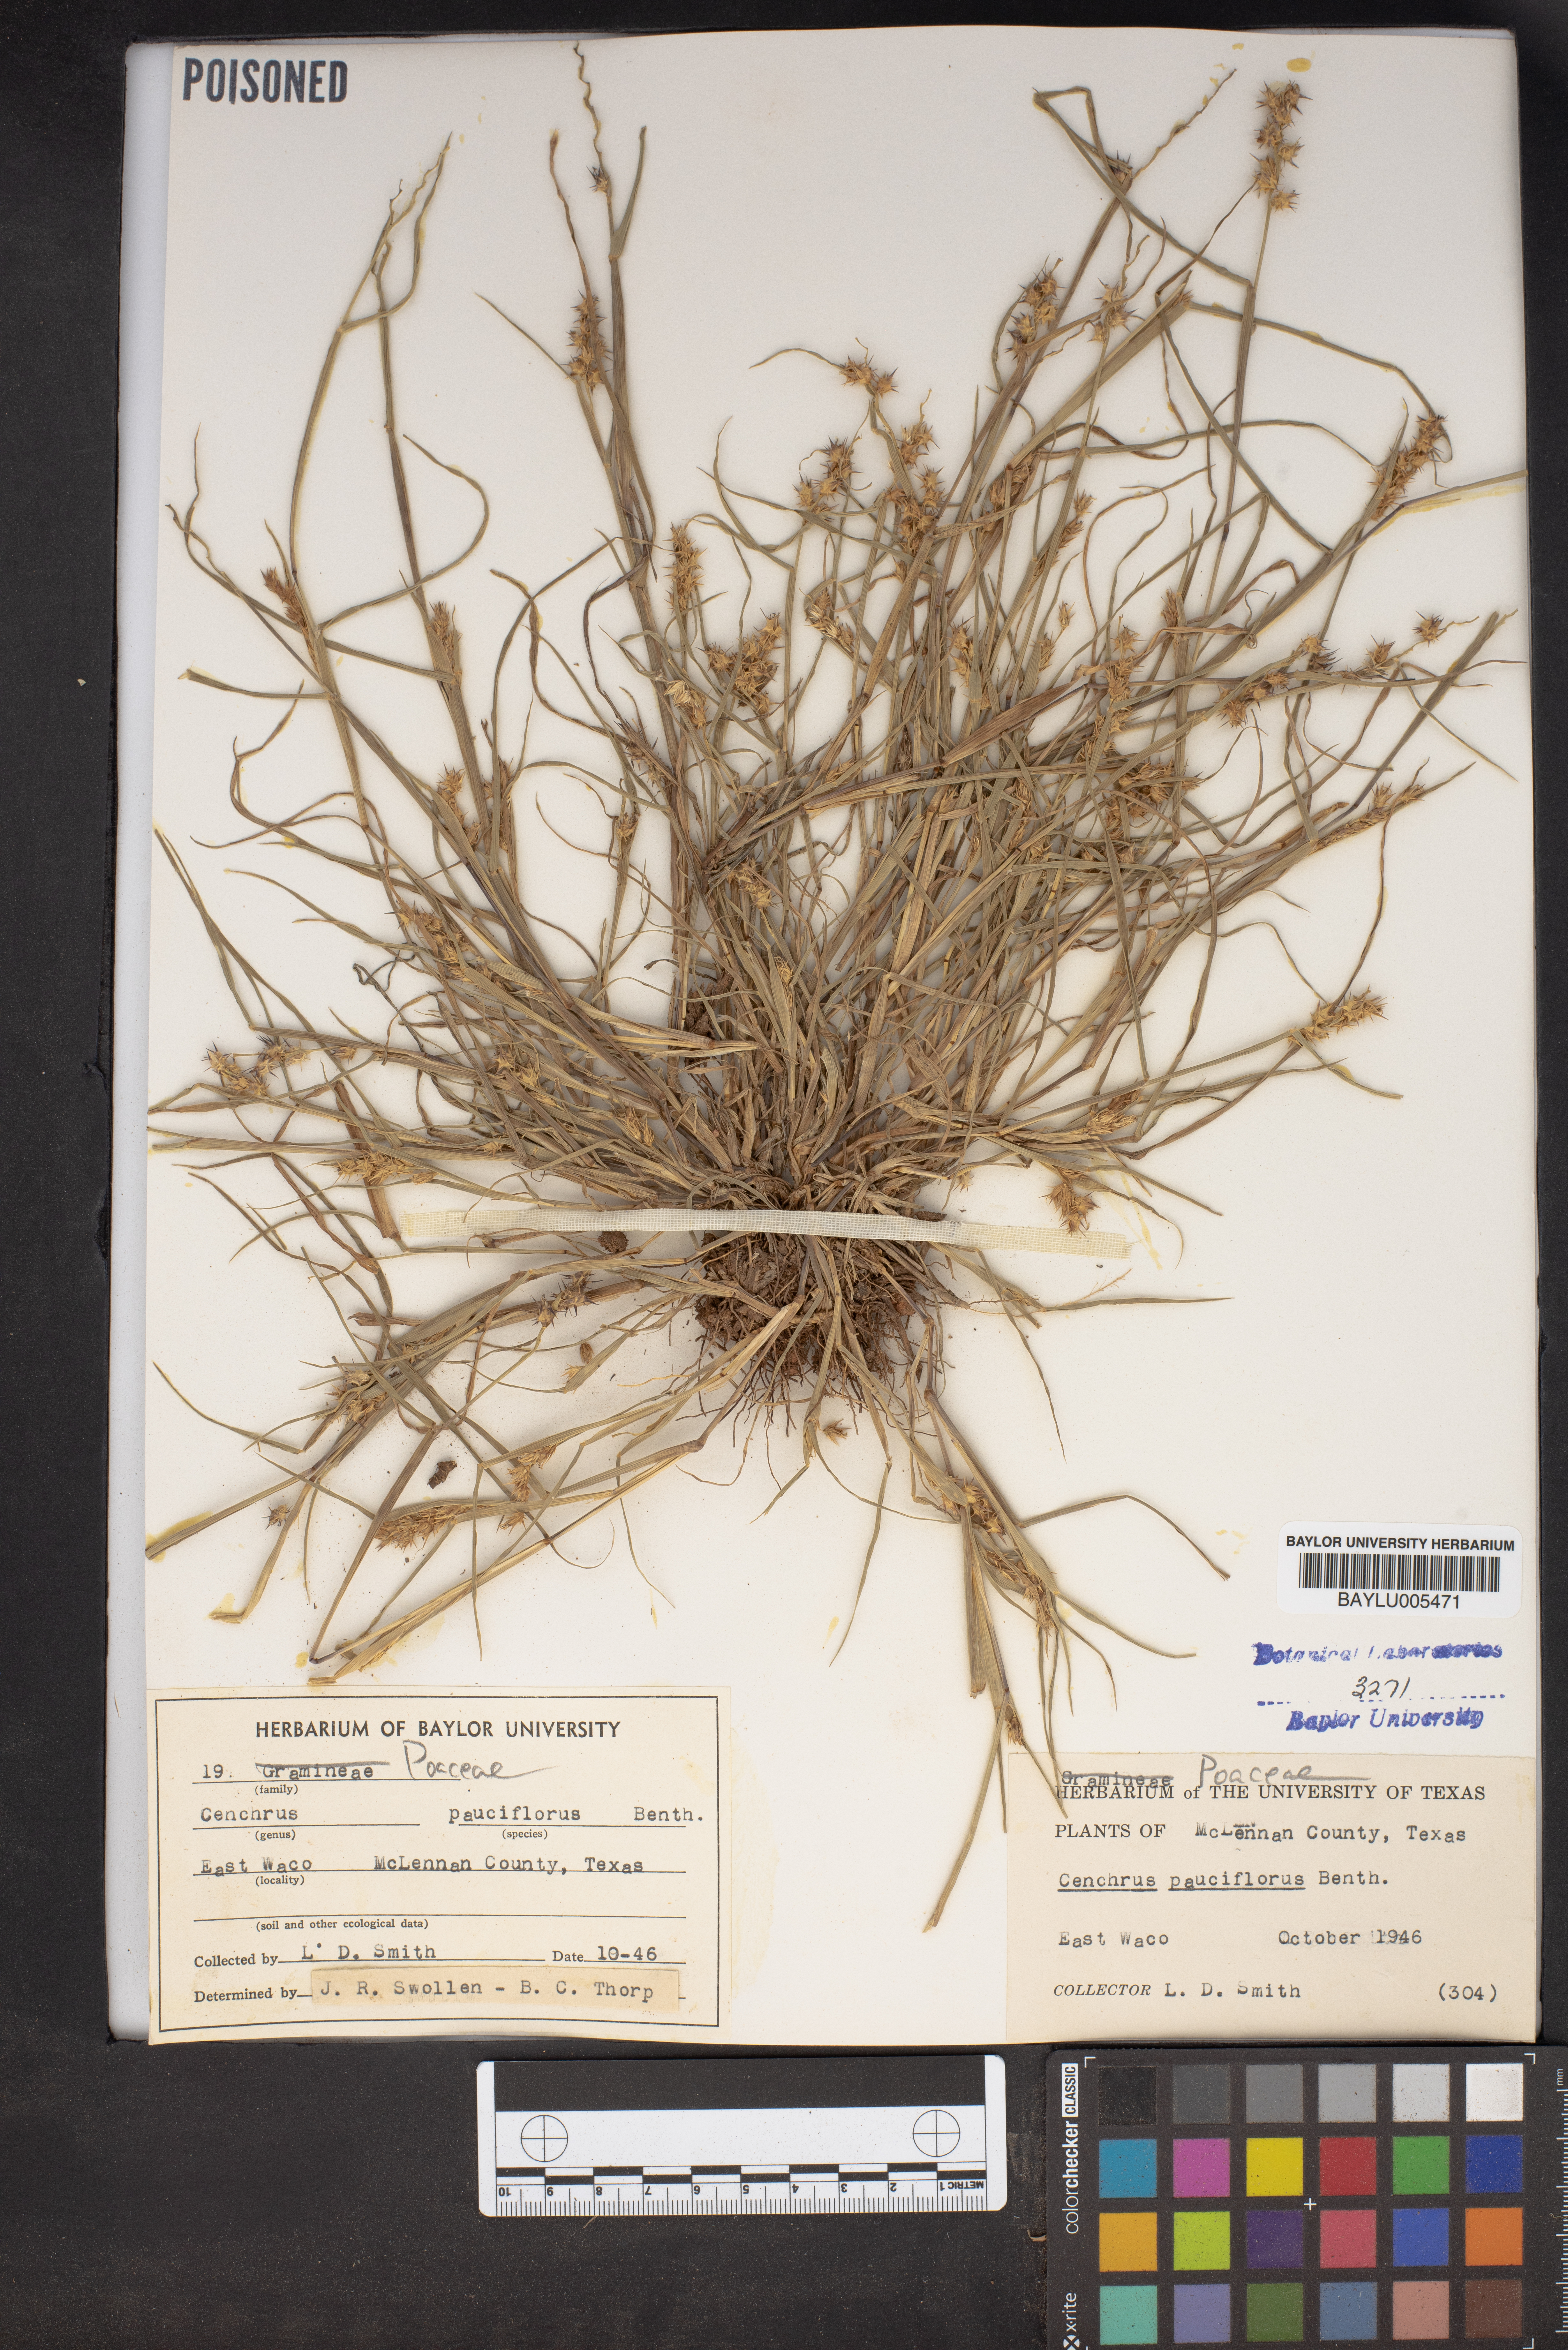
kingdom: Plantae
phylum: Tracheophyta
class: Liliopsida
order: Poales
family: Poaceae
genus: Cenchrus
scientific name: Cenchrus spinifex
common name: Coast sandbur
